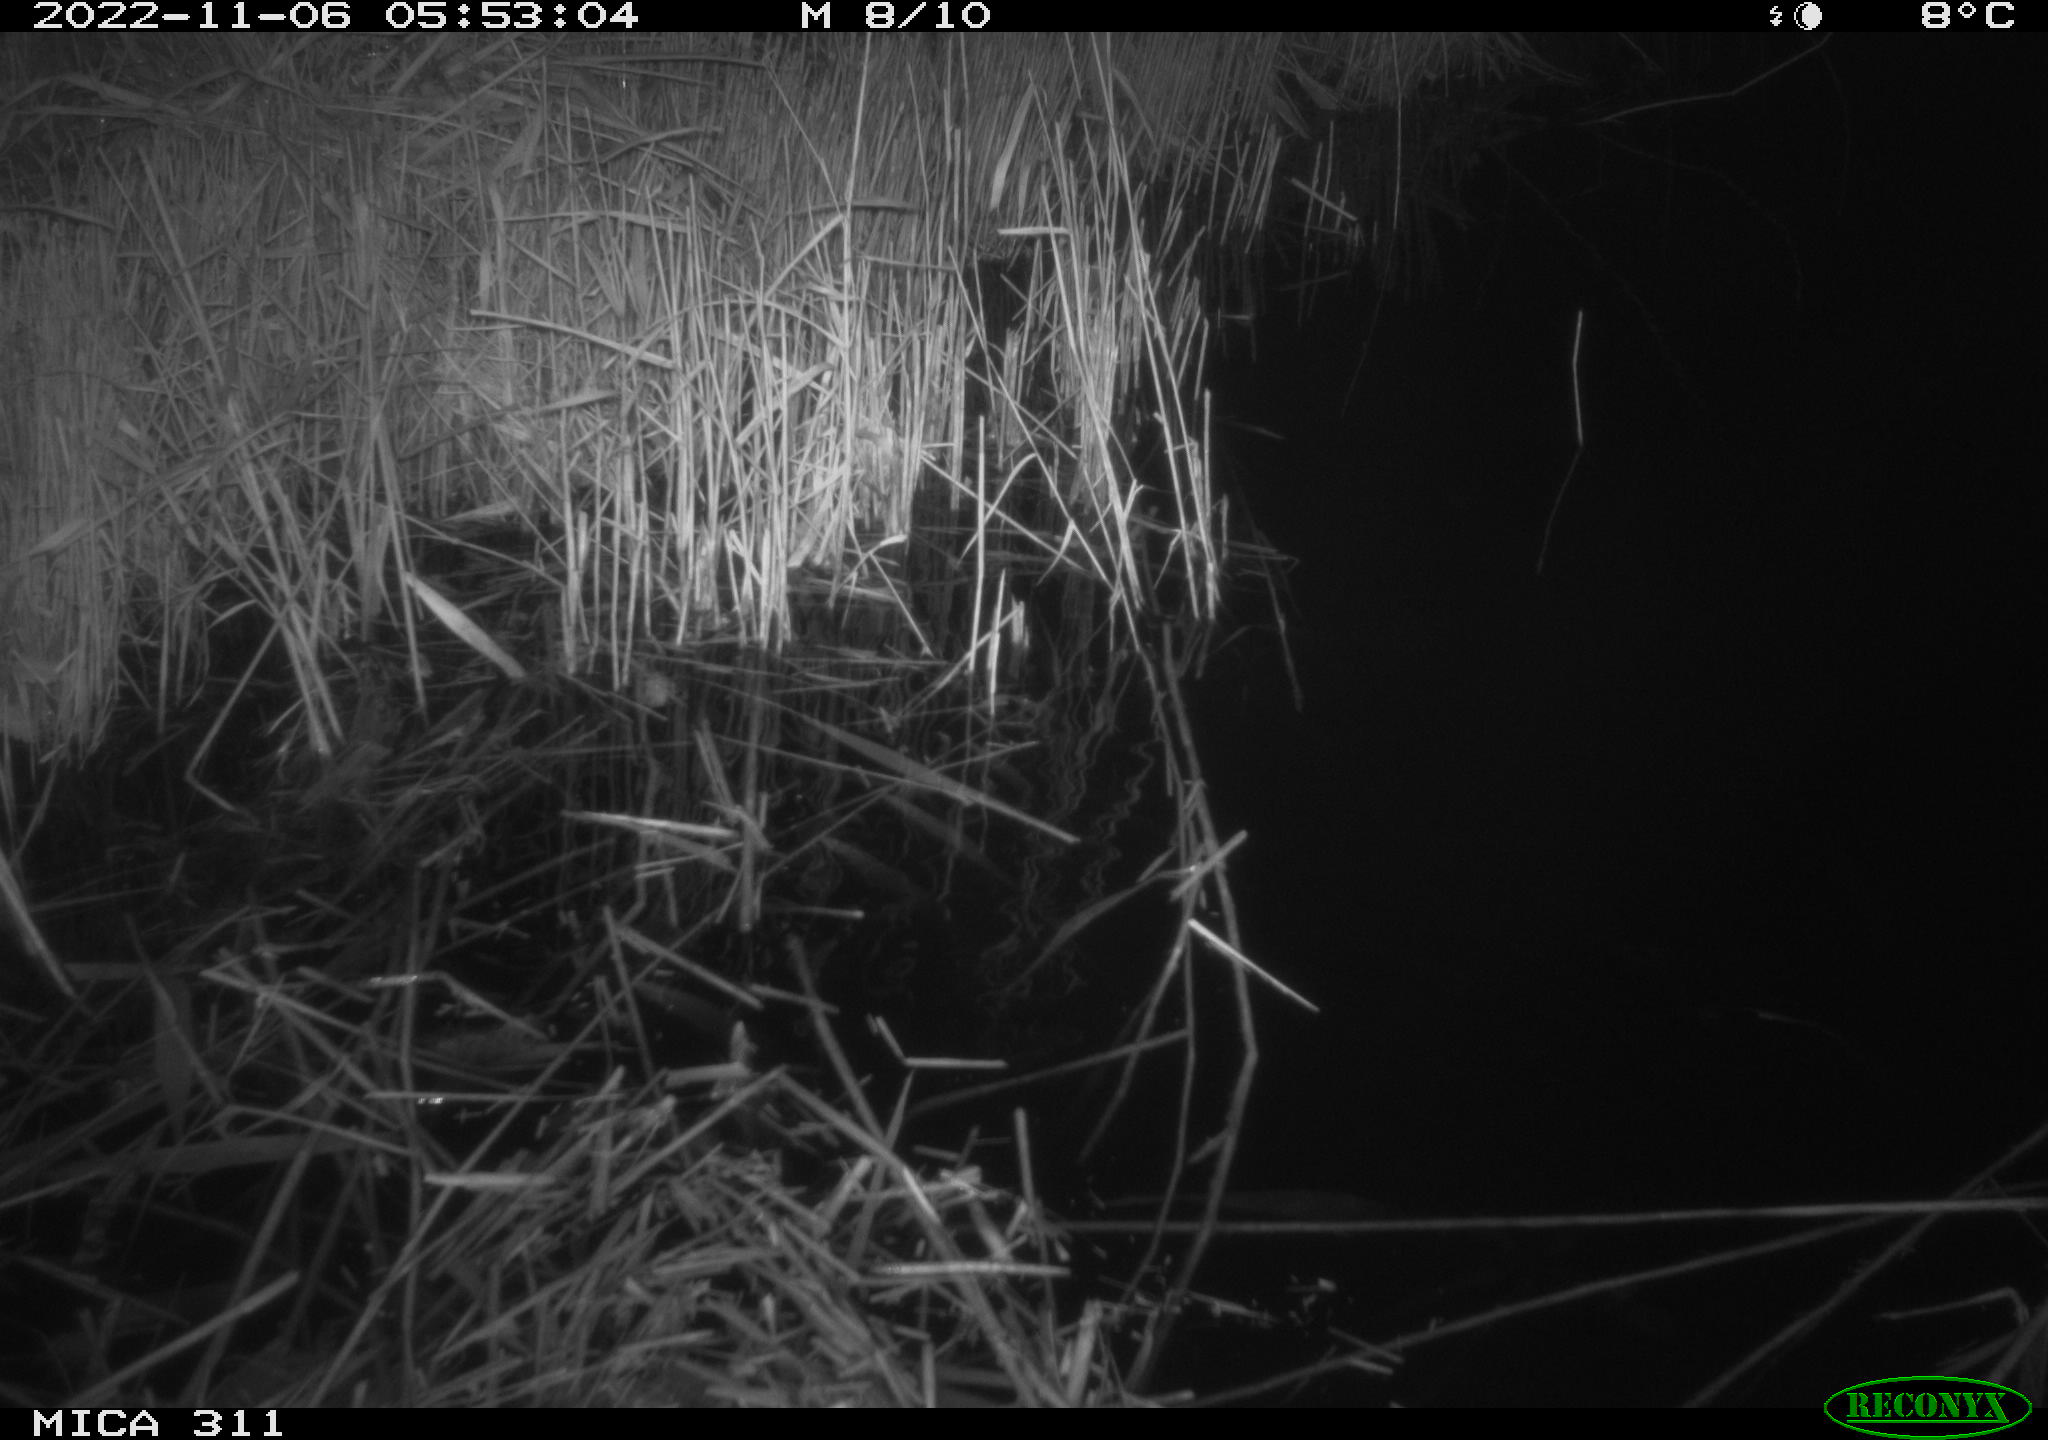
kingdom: Animalia
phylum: Chordata
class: Mammalia
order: Rodentia
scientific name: Rodentia
